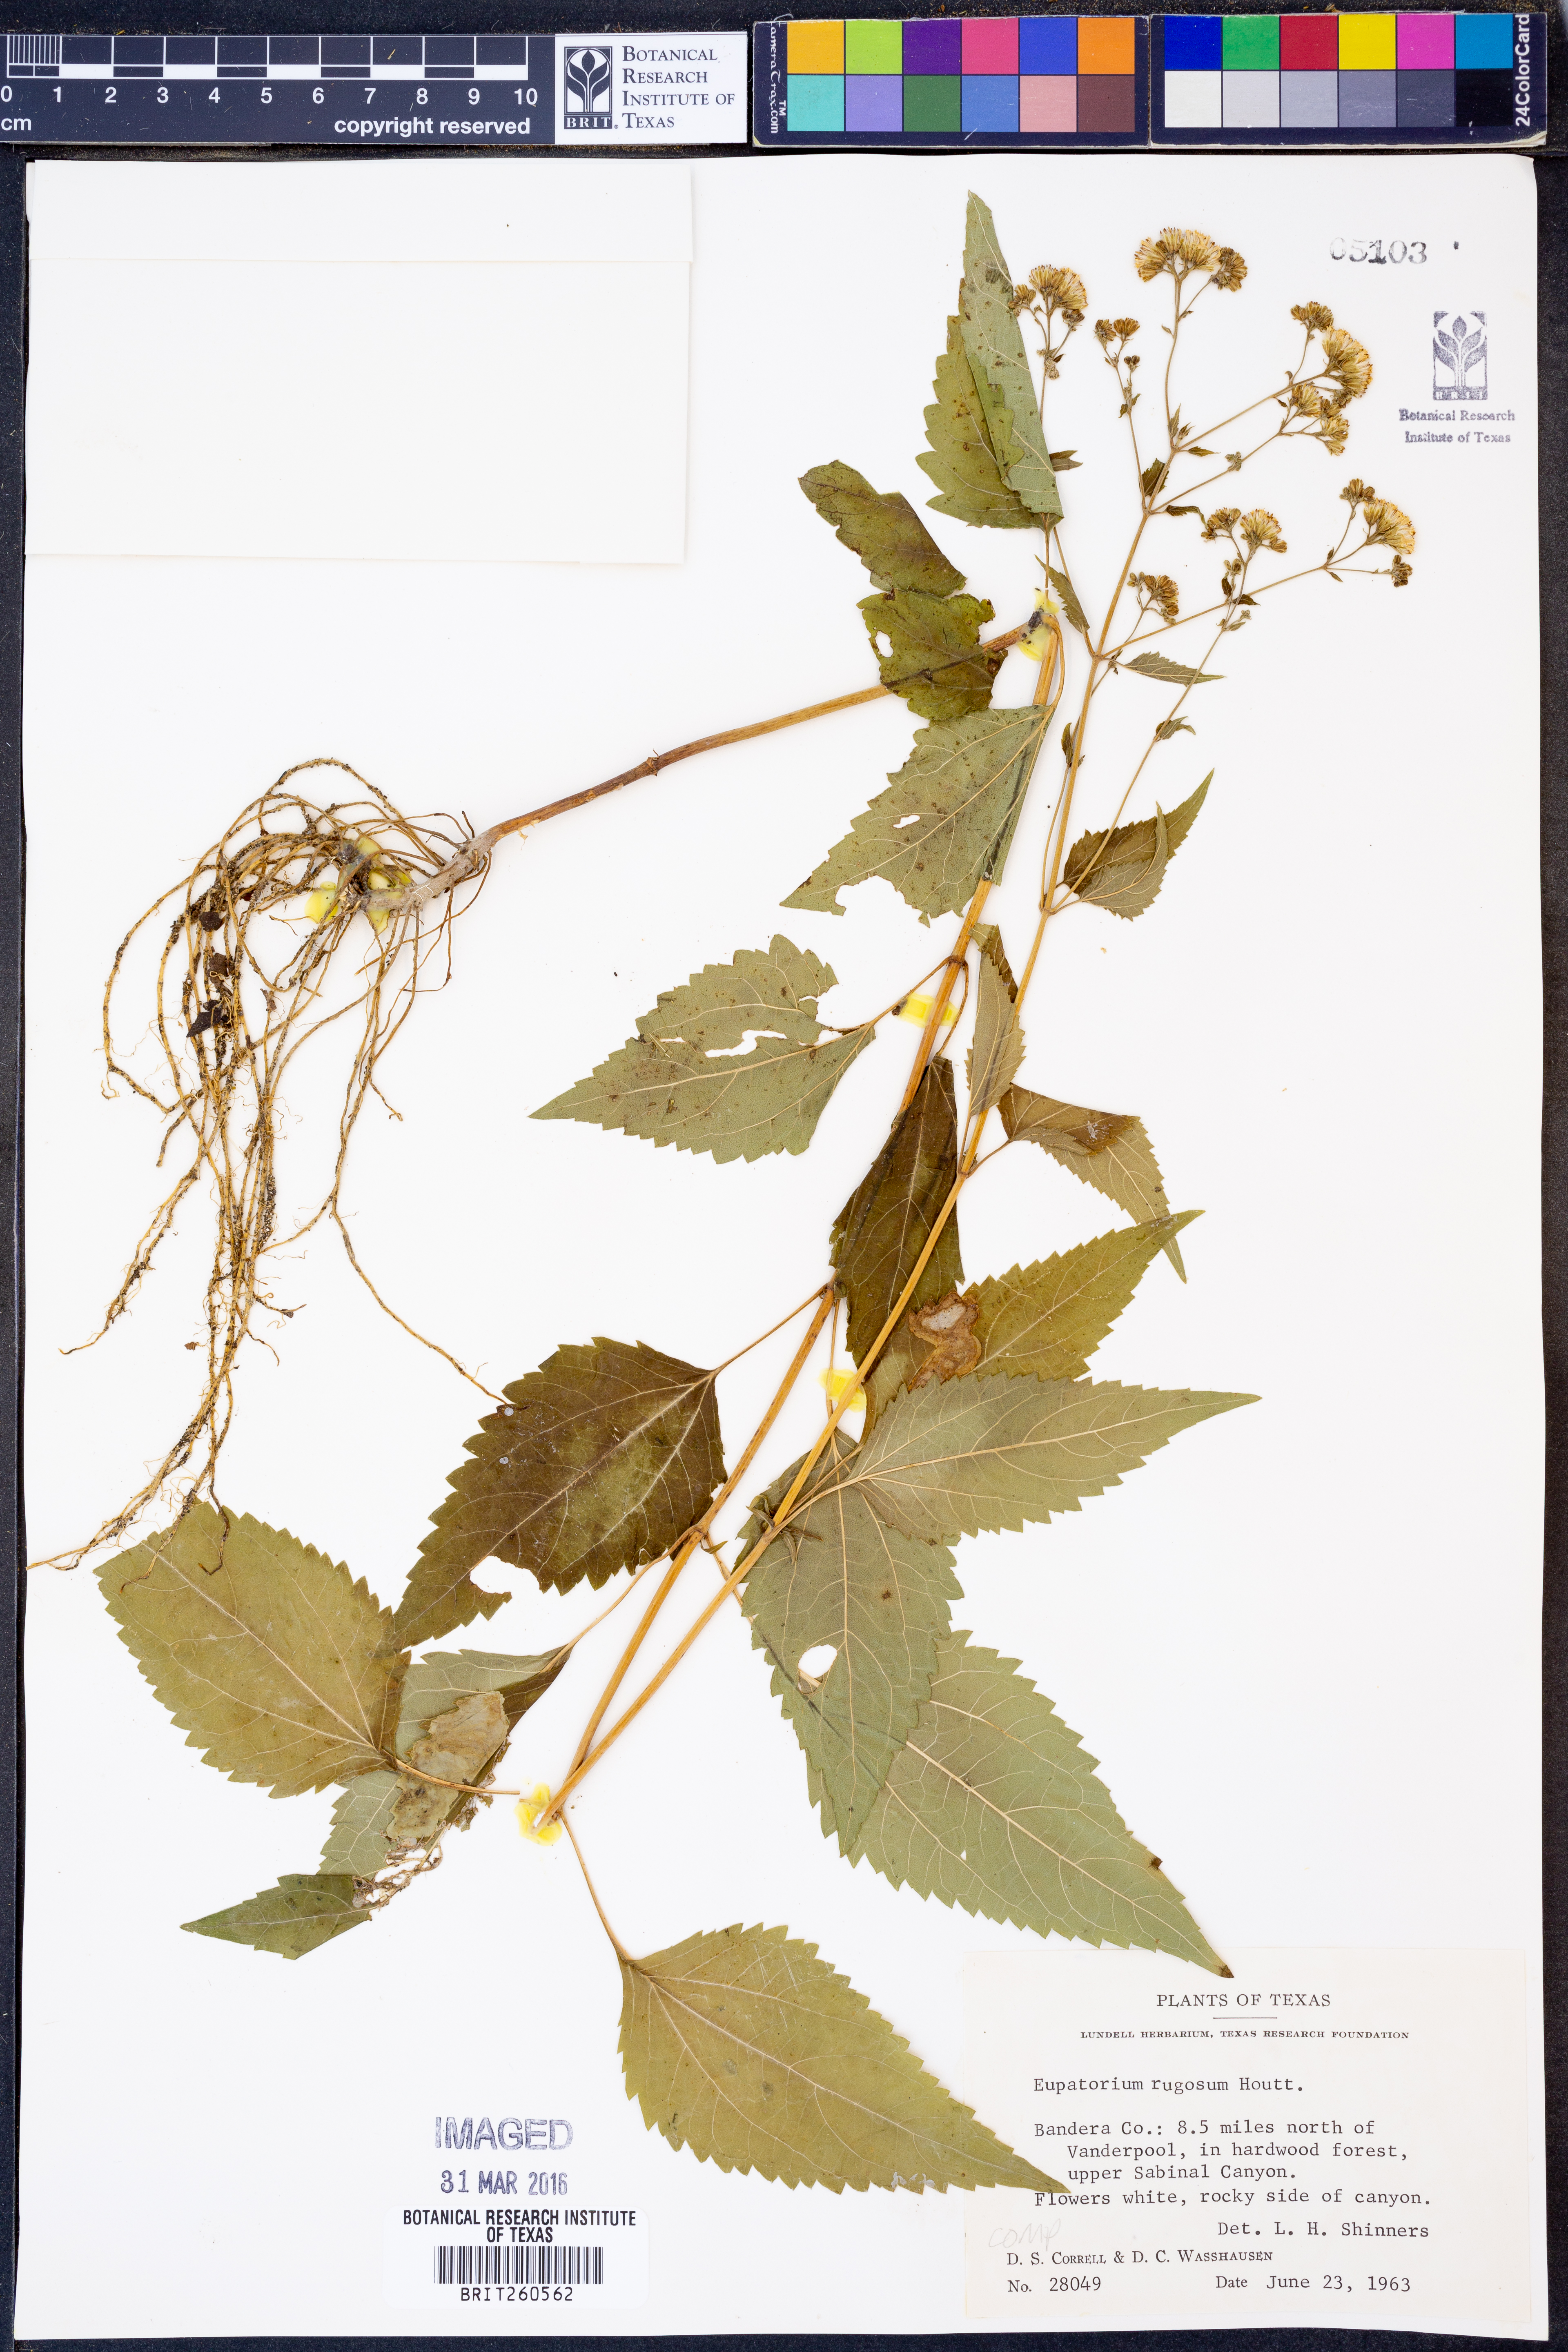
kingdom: Plantae
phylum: Tracheophyta
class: Magnoliopsida
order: Asterales
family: Asteraceae
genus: Cronquistianthus
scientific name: Cronquistianthus bulliferus
